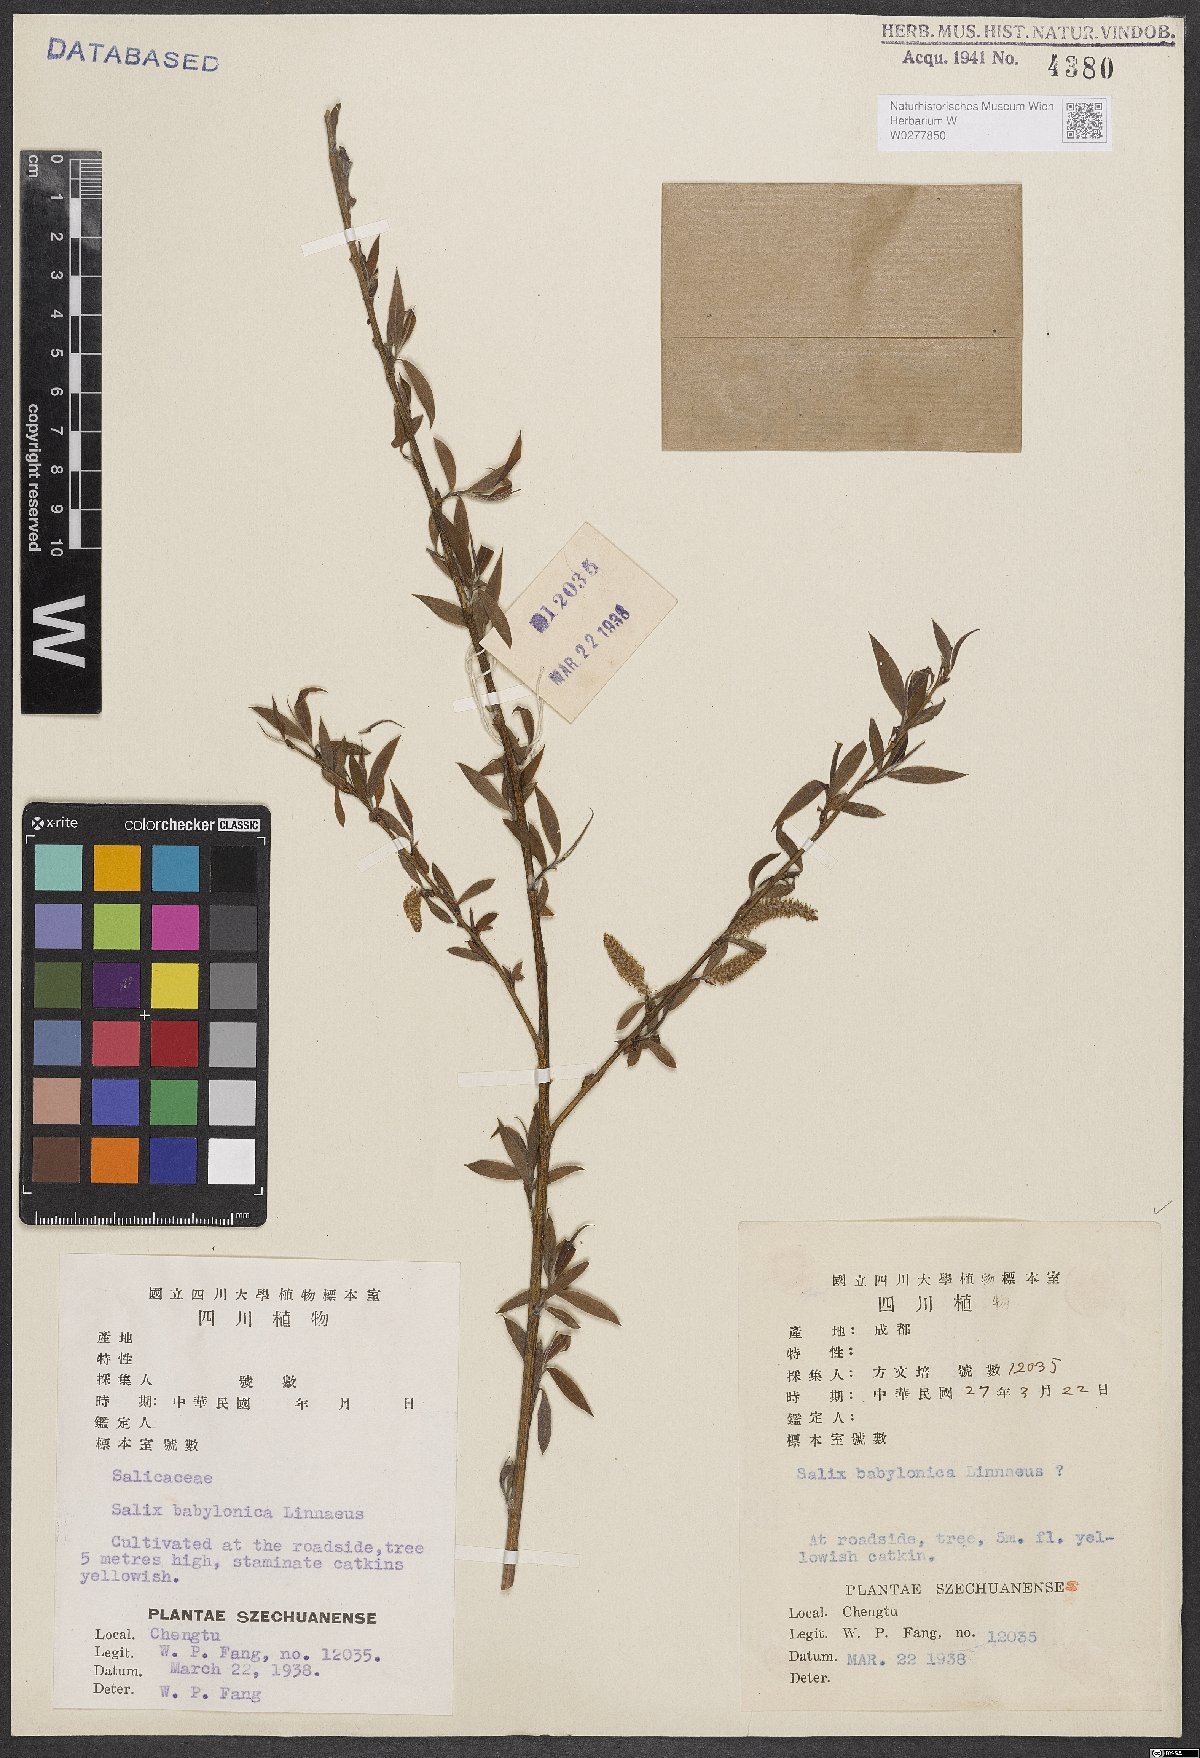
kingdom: Plantae
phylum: Tracheophyta
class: Magnoliopsida
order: Malpighiales
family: Salicaceae
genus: Salix
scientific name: Salix babylonica
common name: Weeping willow
